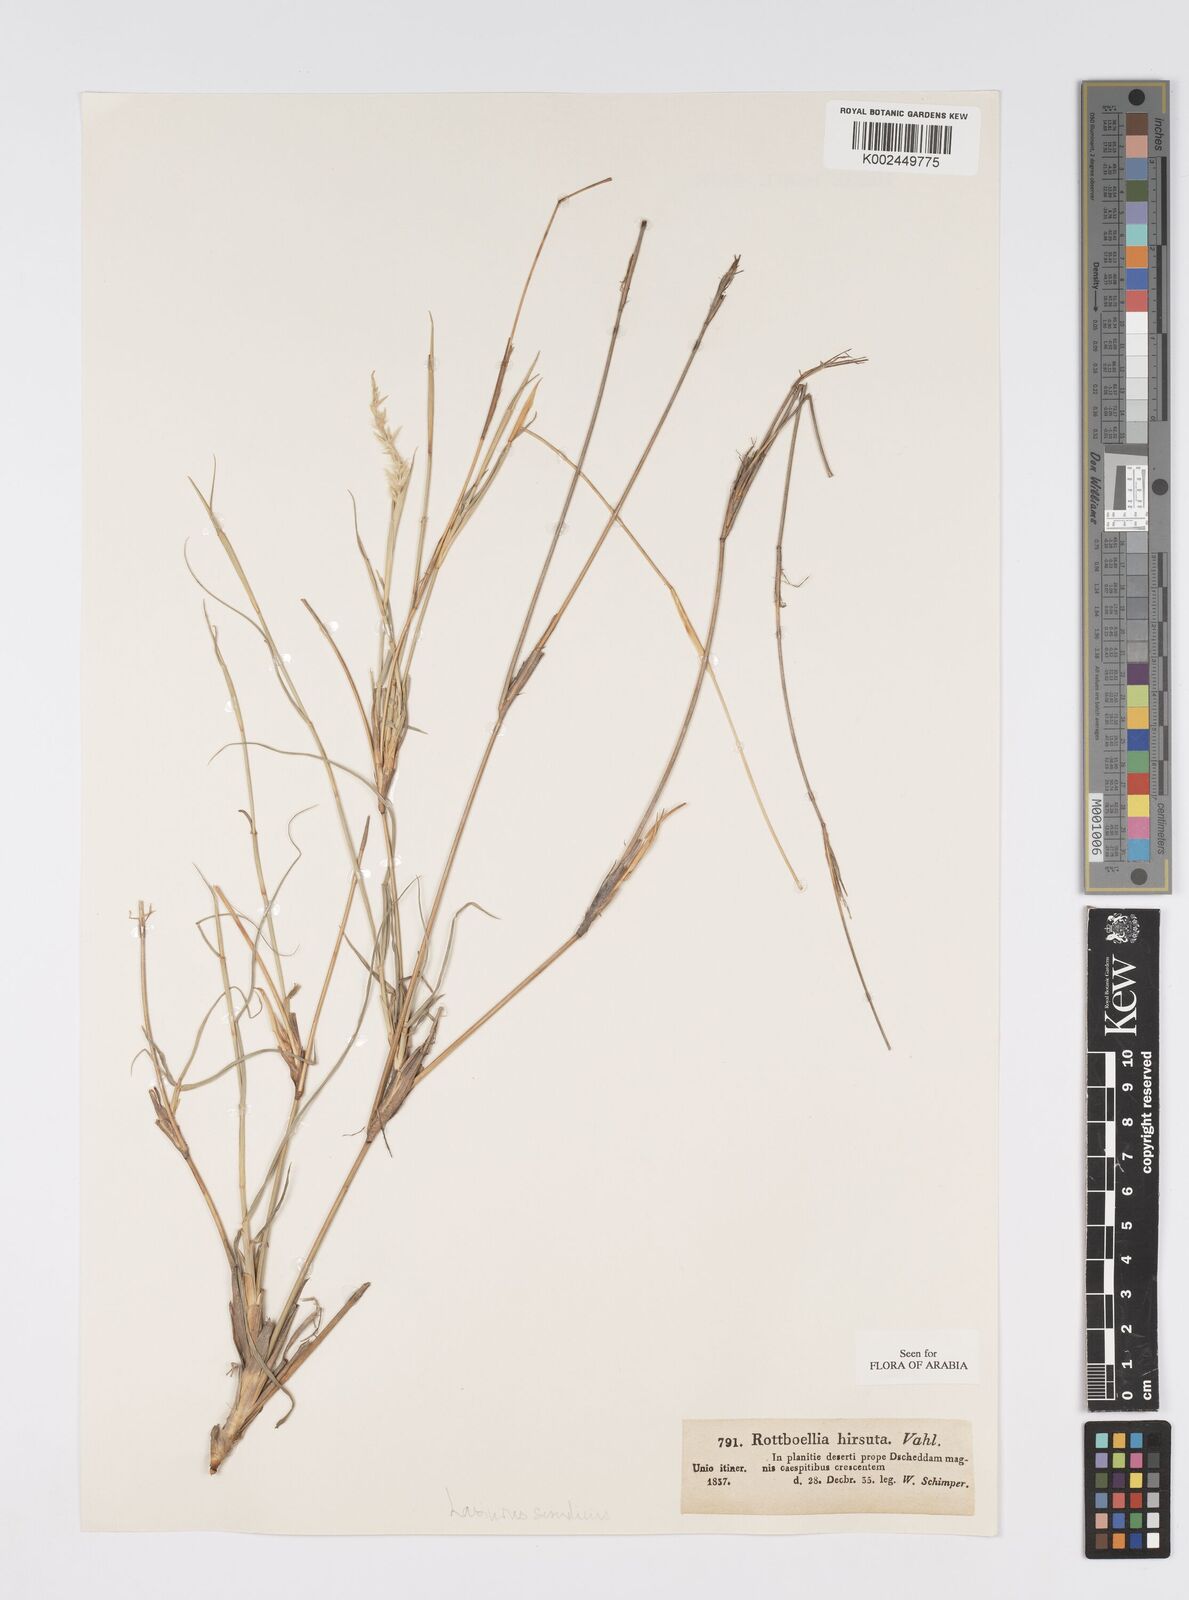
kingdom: Plantae
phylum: Tracheophyta
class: Liliopsida
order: Poales
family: Poaceae
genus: Lasiurus
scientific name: Lasiurus scindicus
